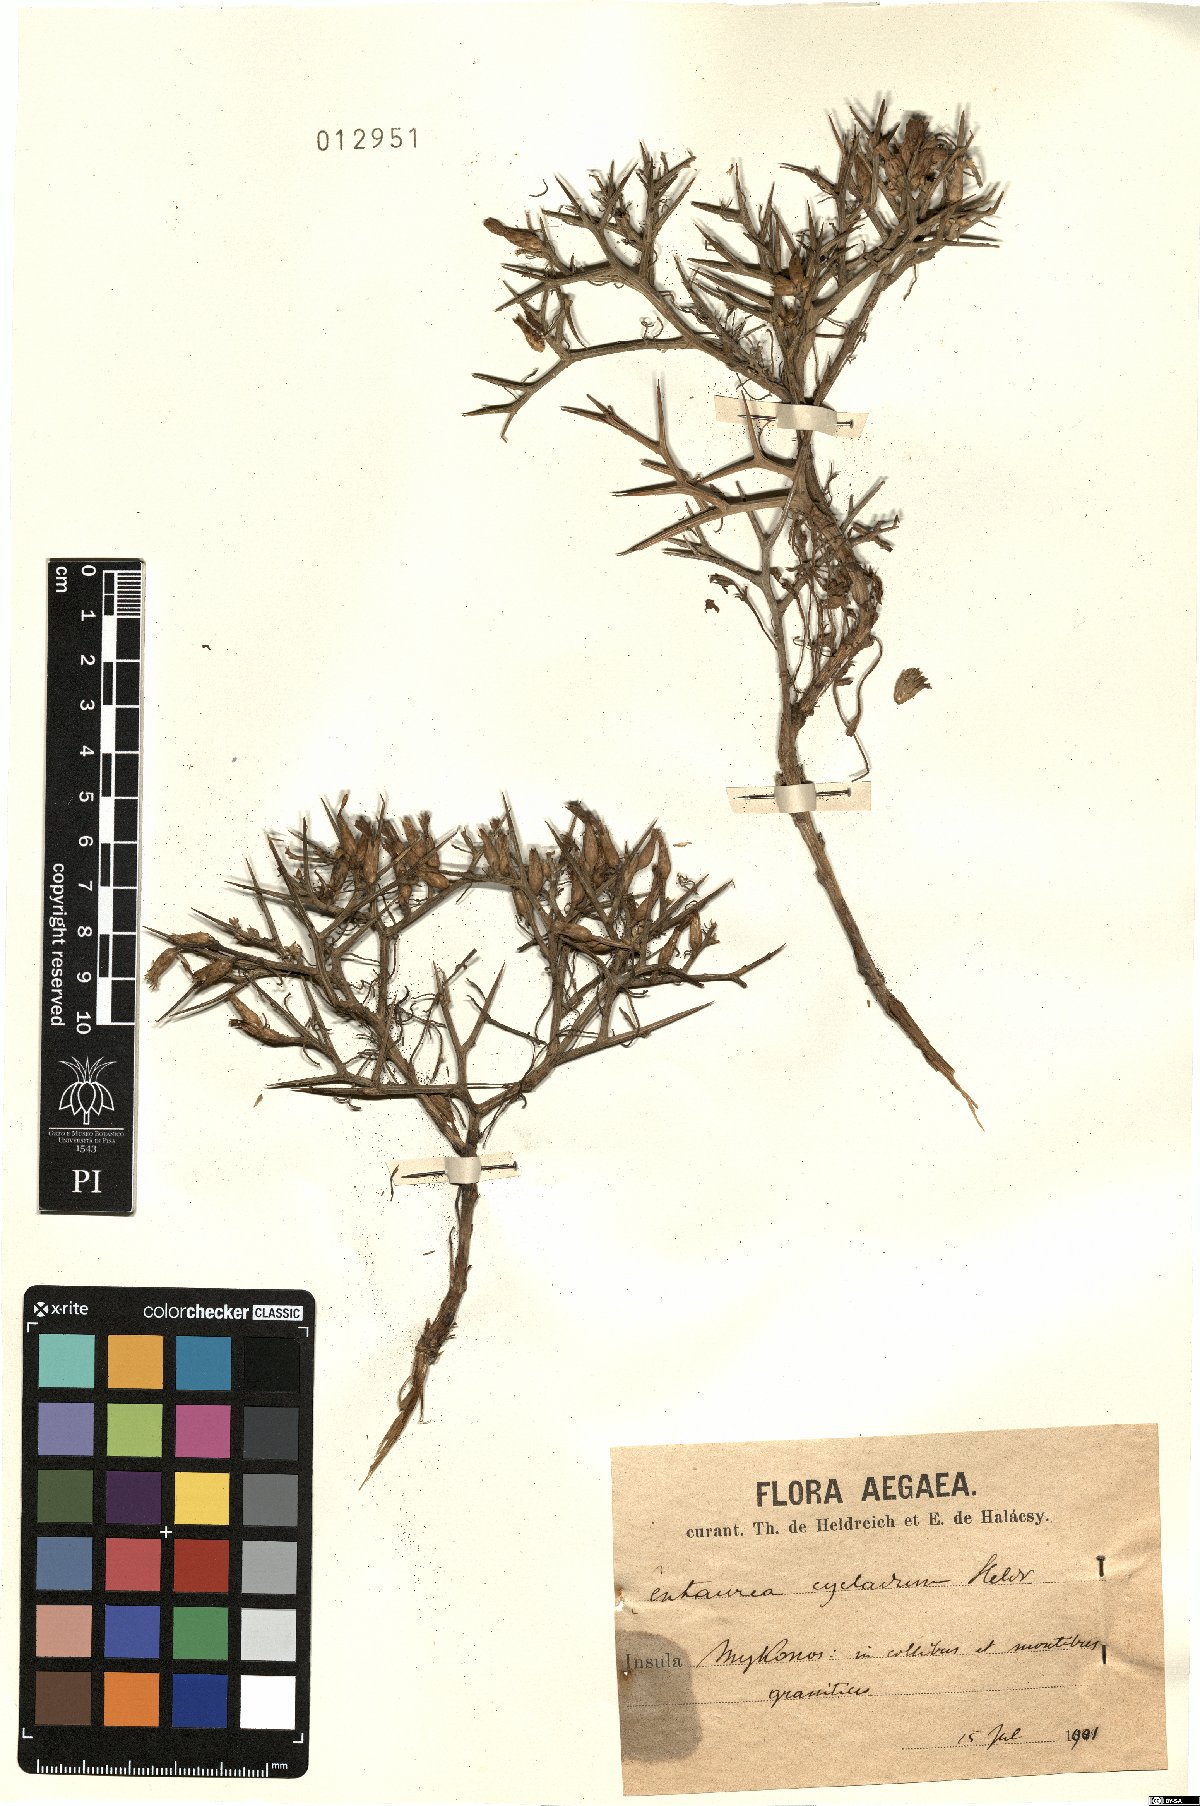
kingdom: Plantae
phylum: Tracheophyta
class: Magnoliopsida
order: Asterales
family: Asteraceae
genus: Centaurea
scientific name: Centaurea spinosa
